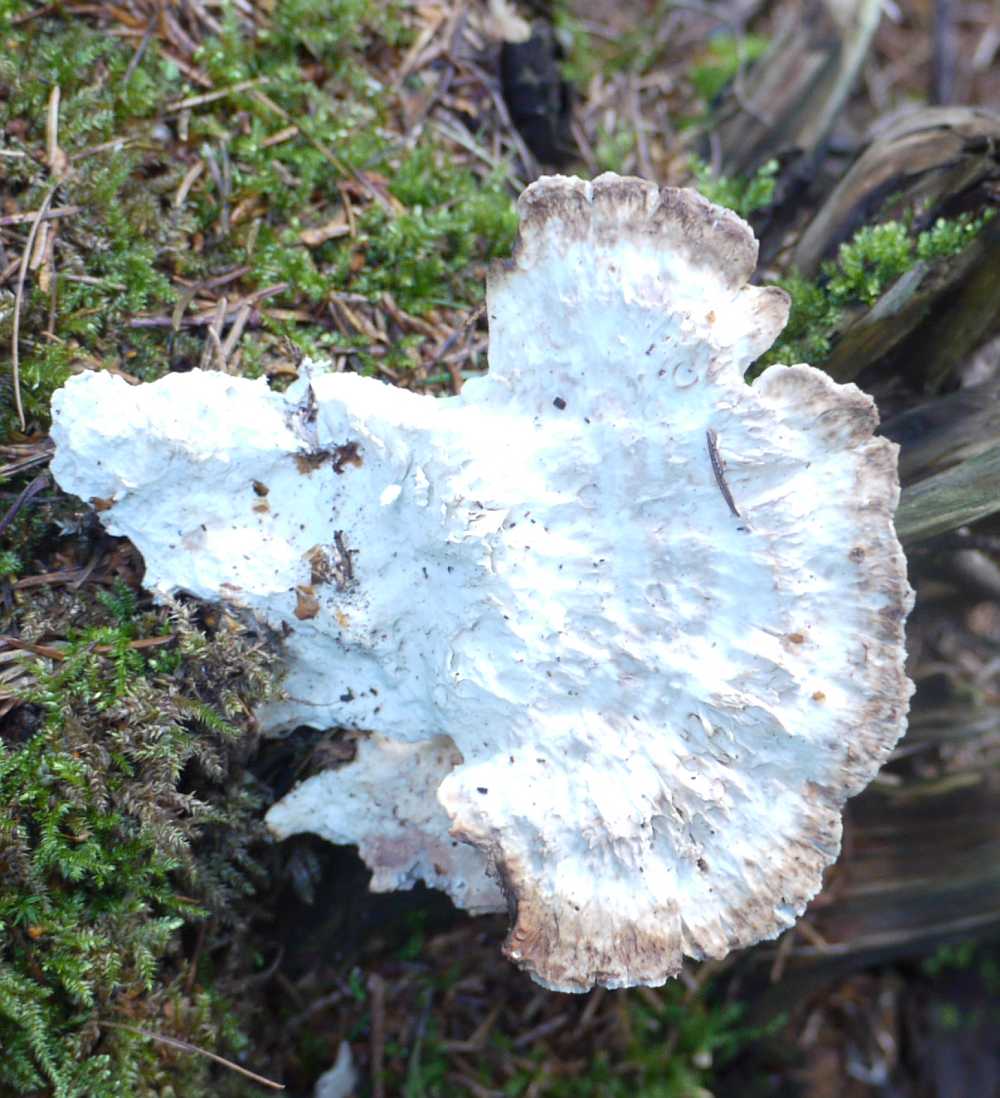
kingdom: Fungi
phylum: Basidiomycota
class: Agaricomycetes
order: Polyporales
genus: Calcipostia
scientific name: Calcipostia guttulata
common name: dråbe-kødporesvamp
